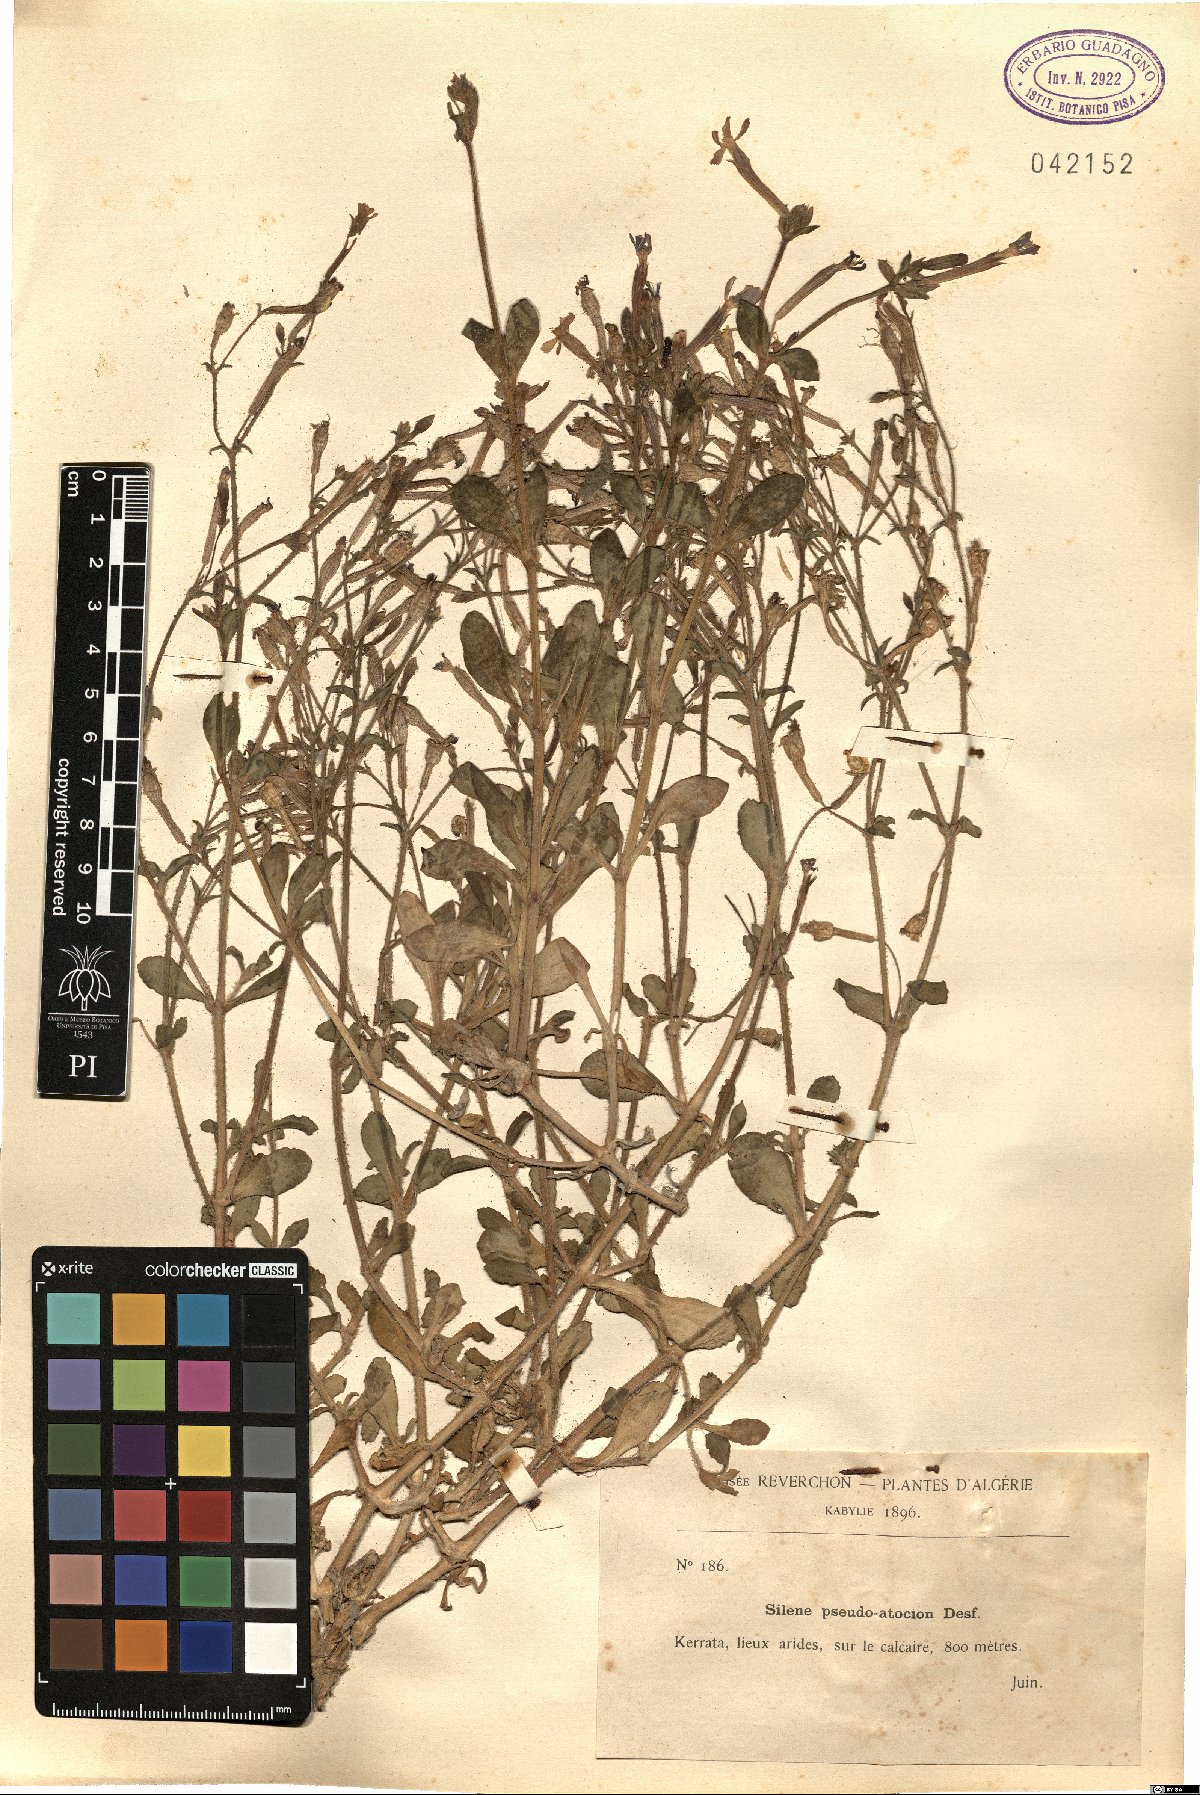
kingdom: Plantae
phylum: Tracheophyta
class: Magnoliopsida
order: Caryophyllales
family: Caryophyllaceae
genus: Silene
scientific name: Silene pseudoatocion
